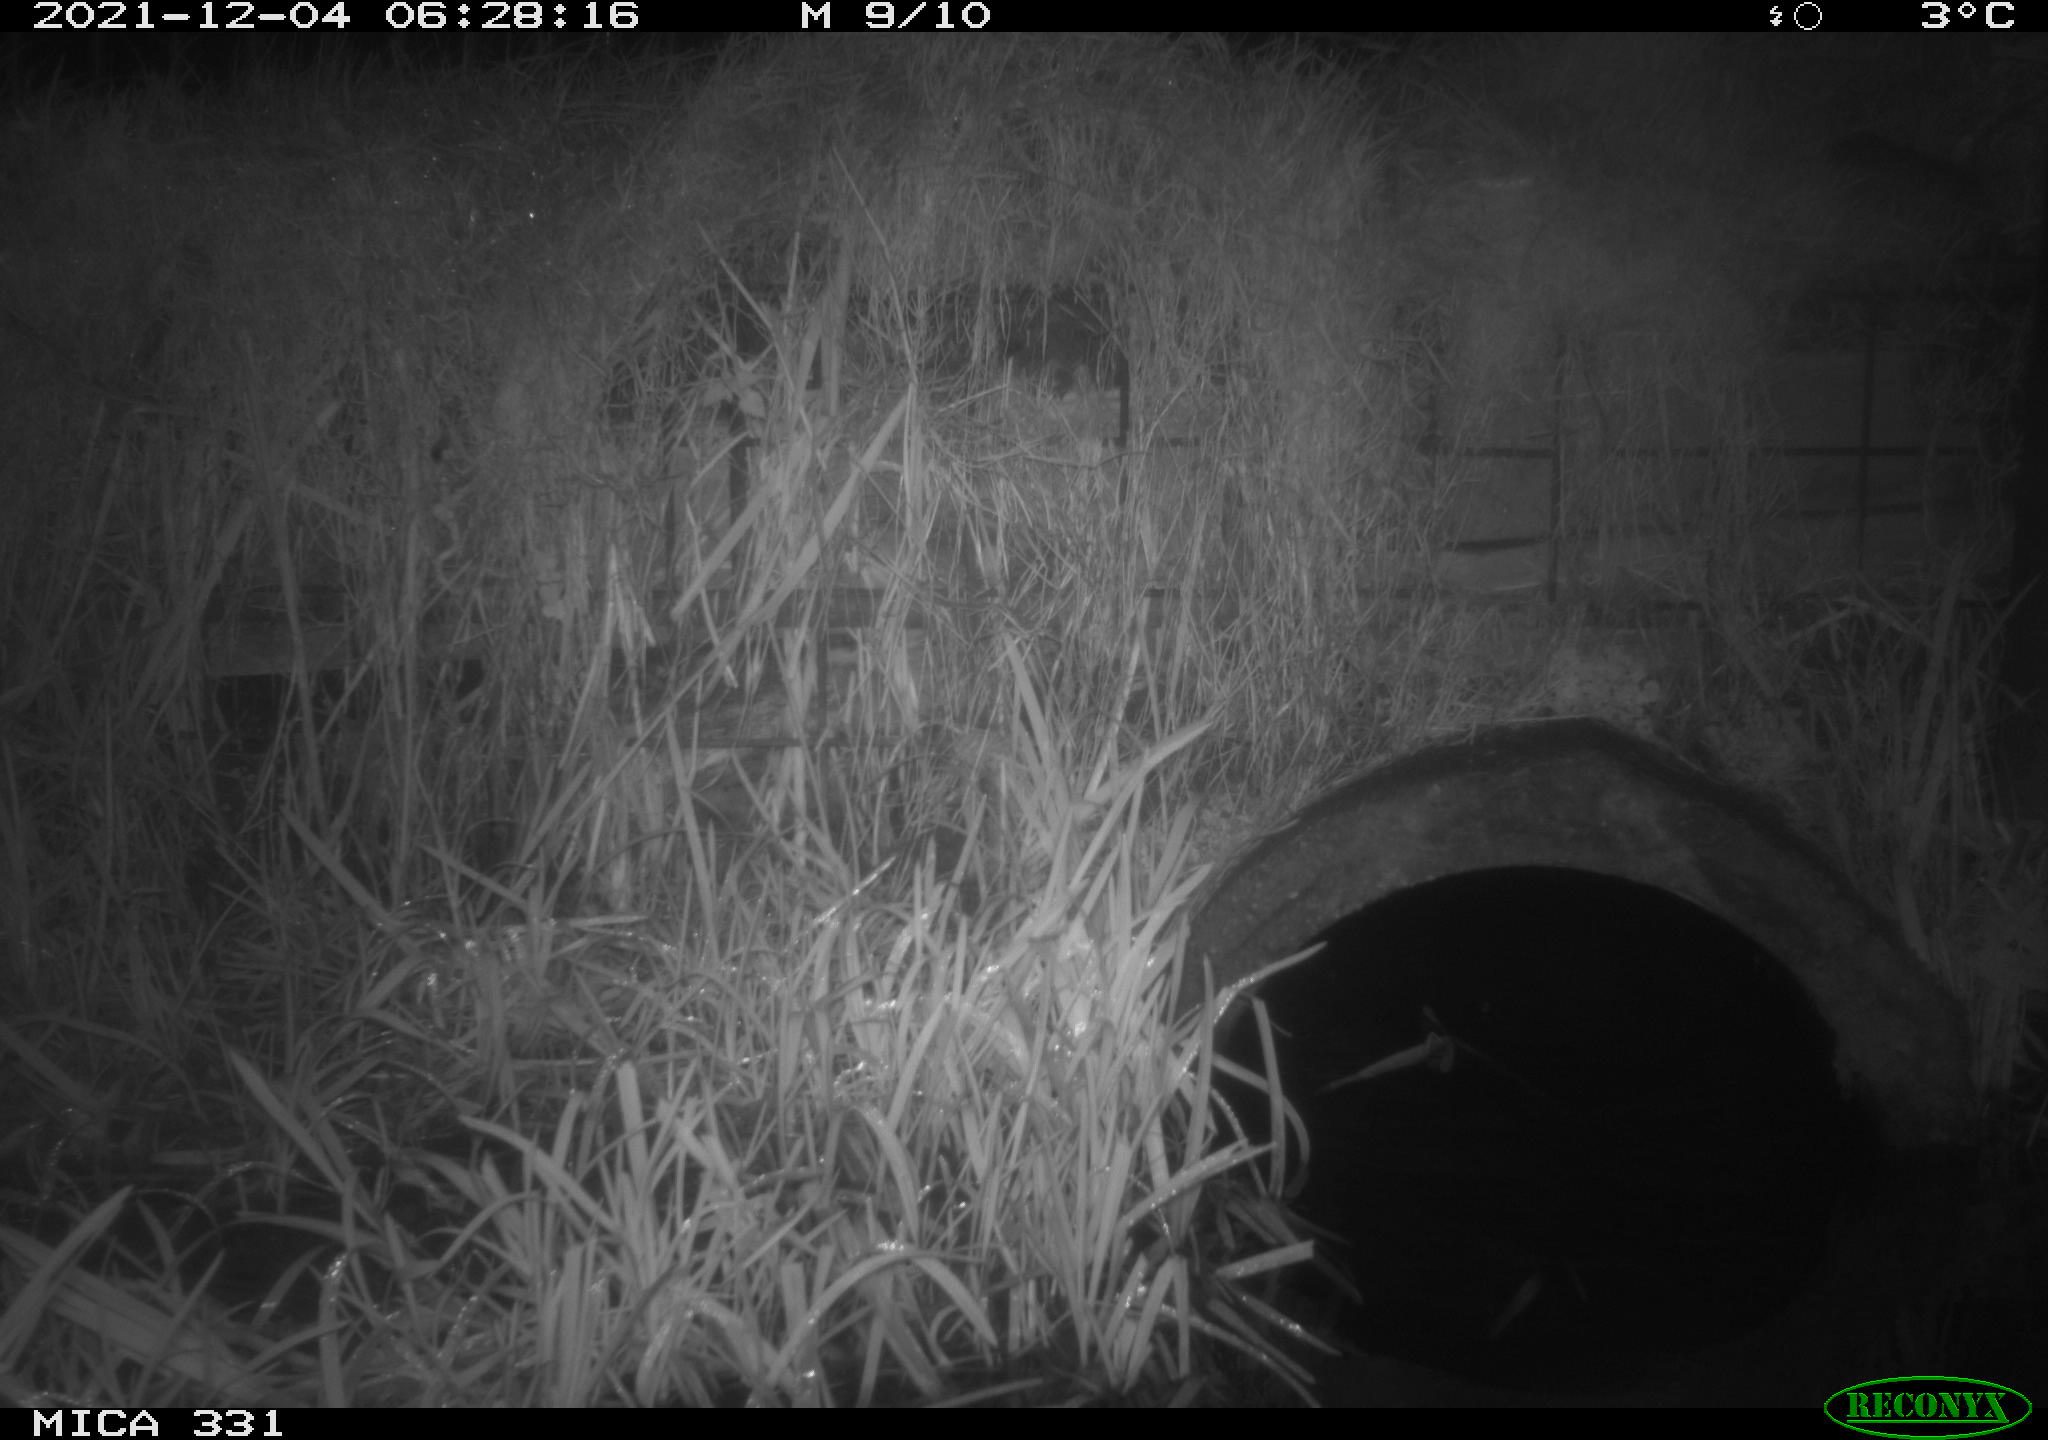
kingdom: Animalia
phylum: Chordata
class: Mammalia
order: Rodentia
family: Muridae
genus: Rattus
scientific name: Rattus norvegicus
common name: Brown rat
